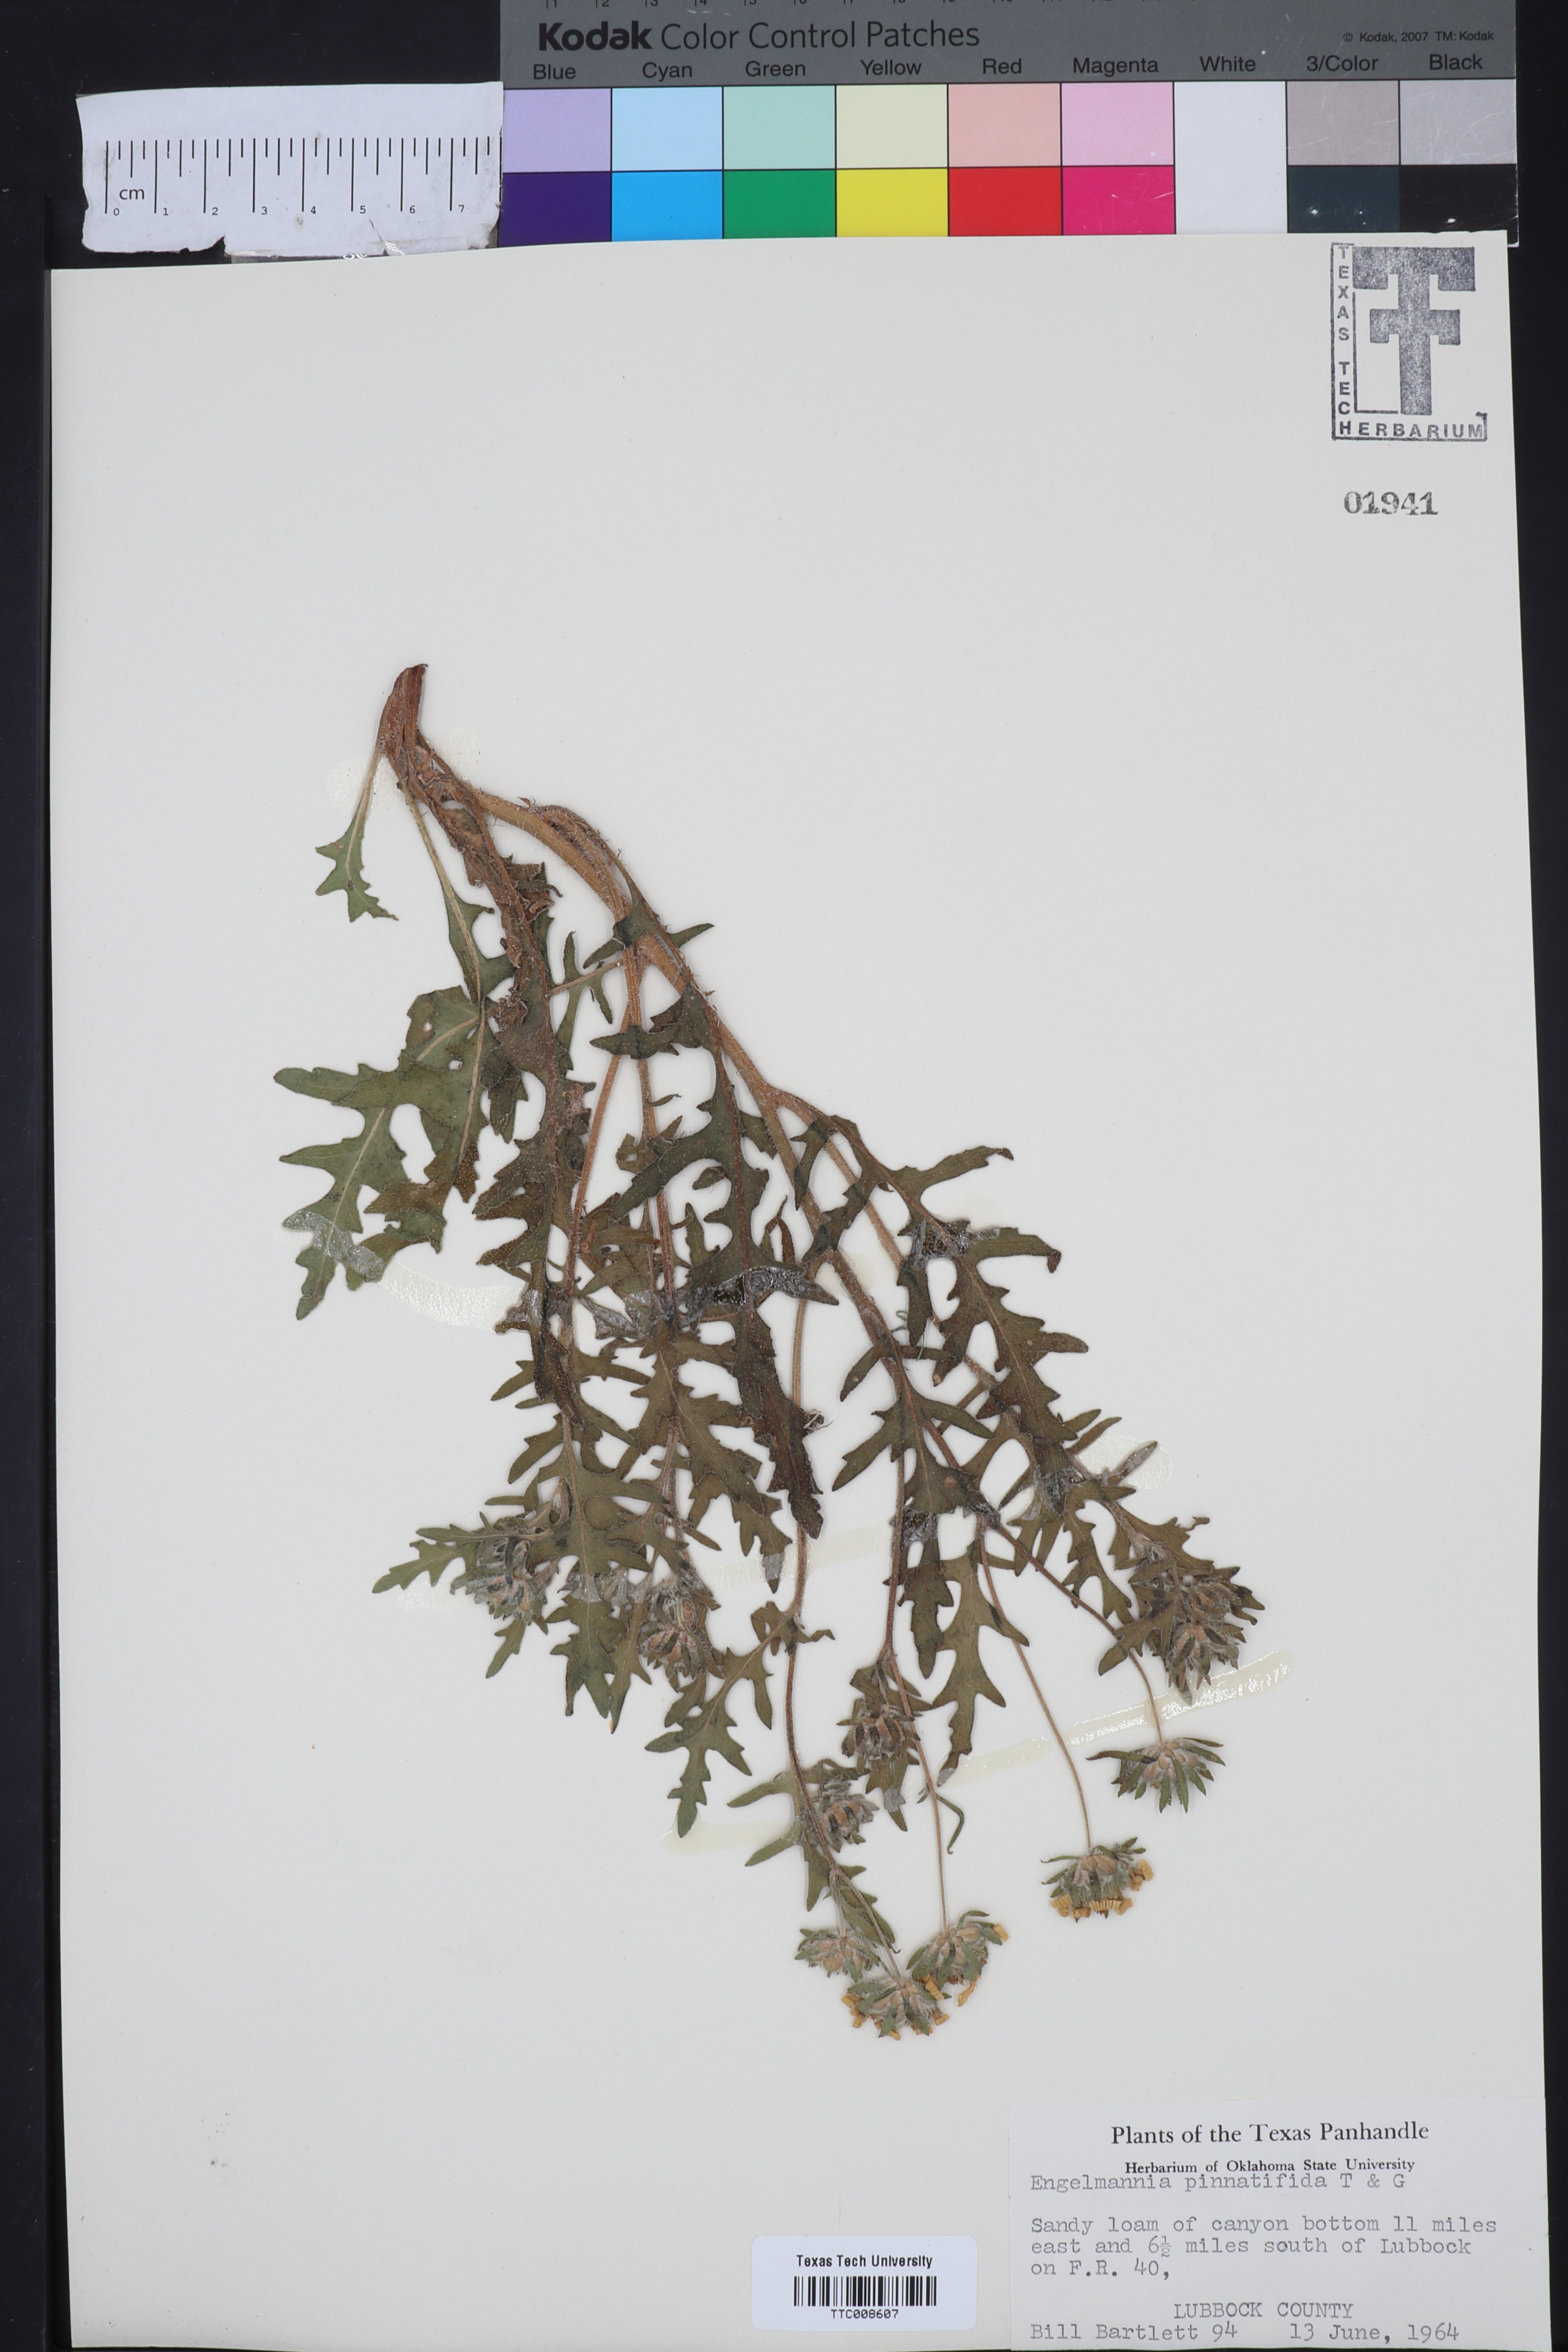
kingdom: Plantae
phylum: Tracheophyta
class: Magnoliopsida
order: Asterales
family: Asteraceae
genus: Engelmannia
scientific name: Engelmannia peristenia
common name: Engelmann's daisy
